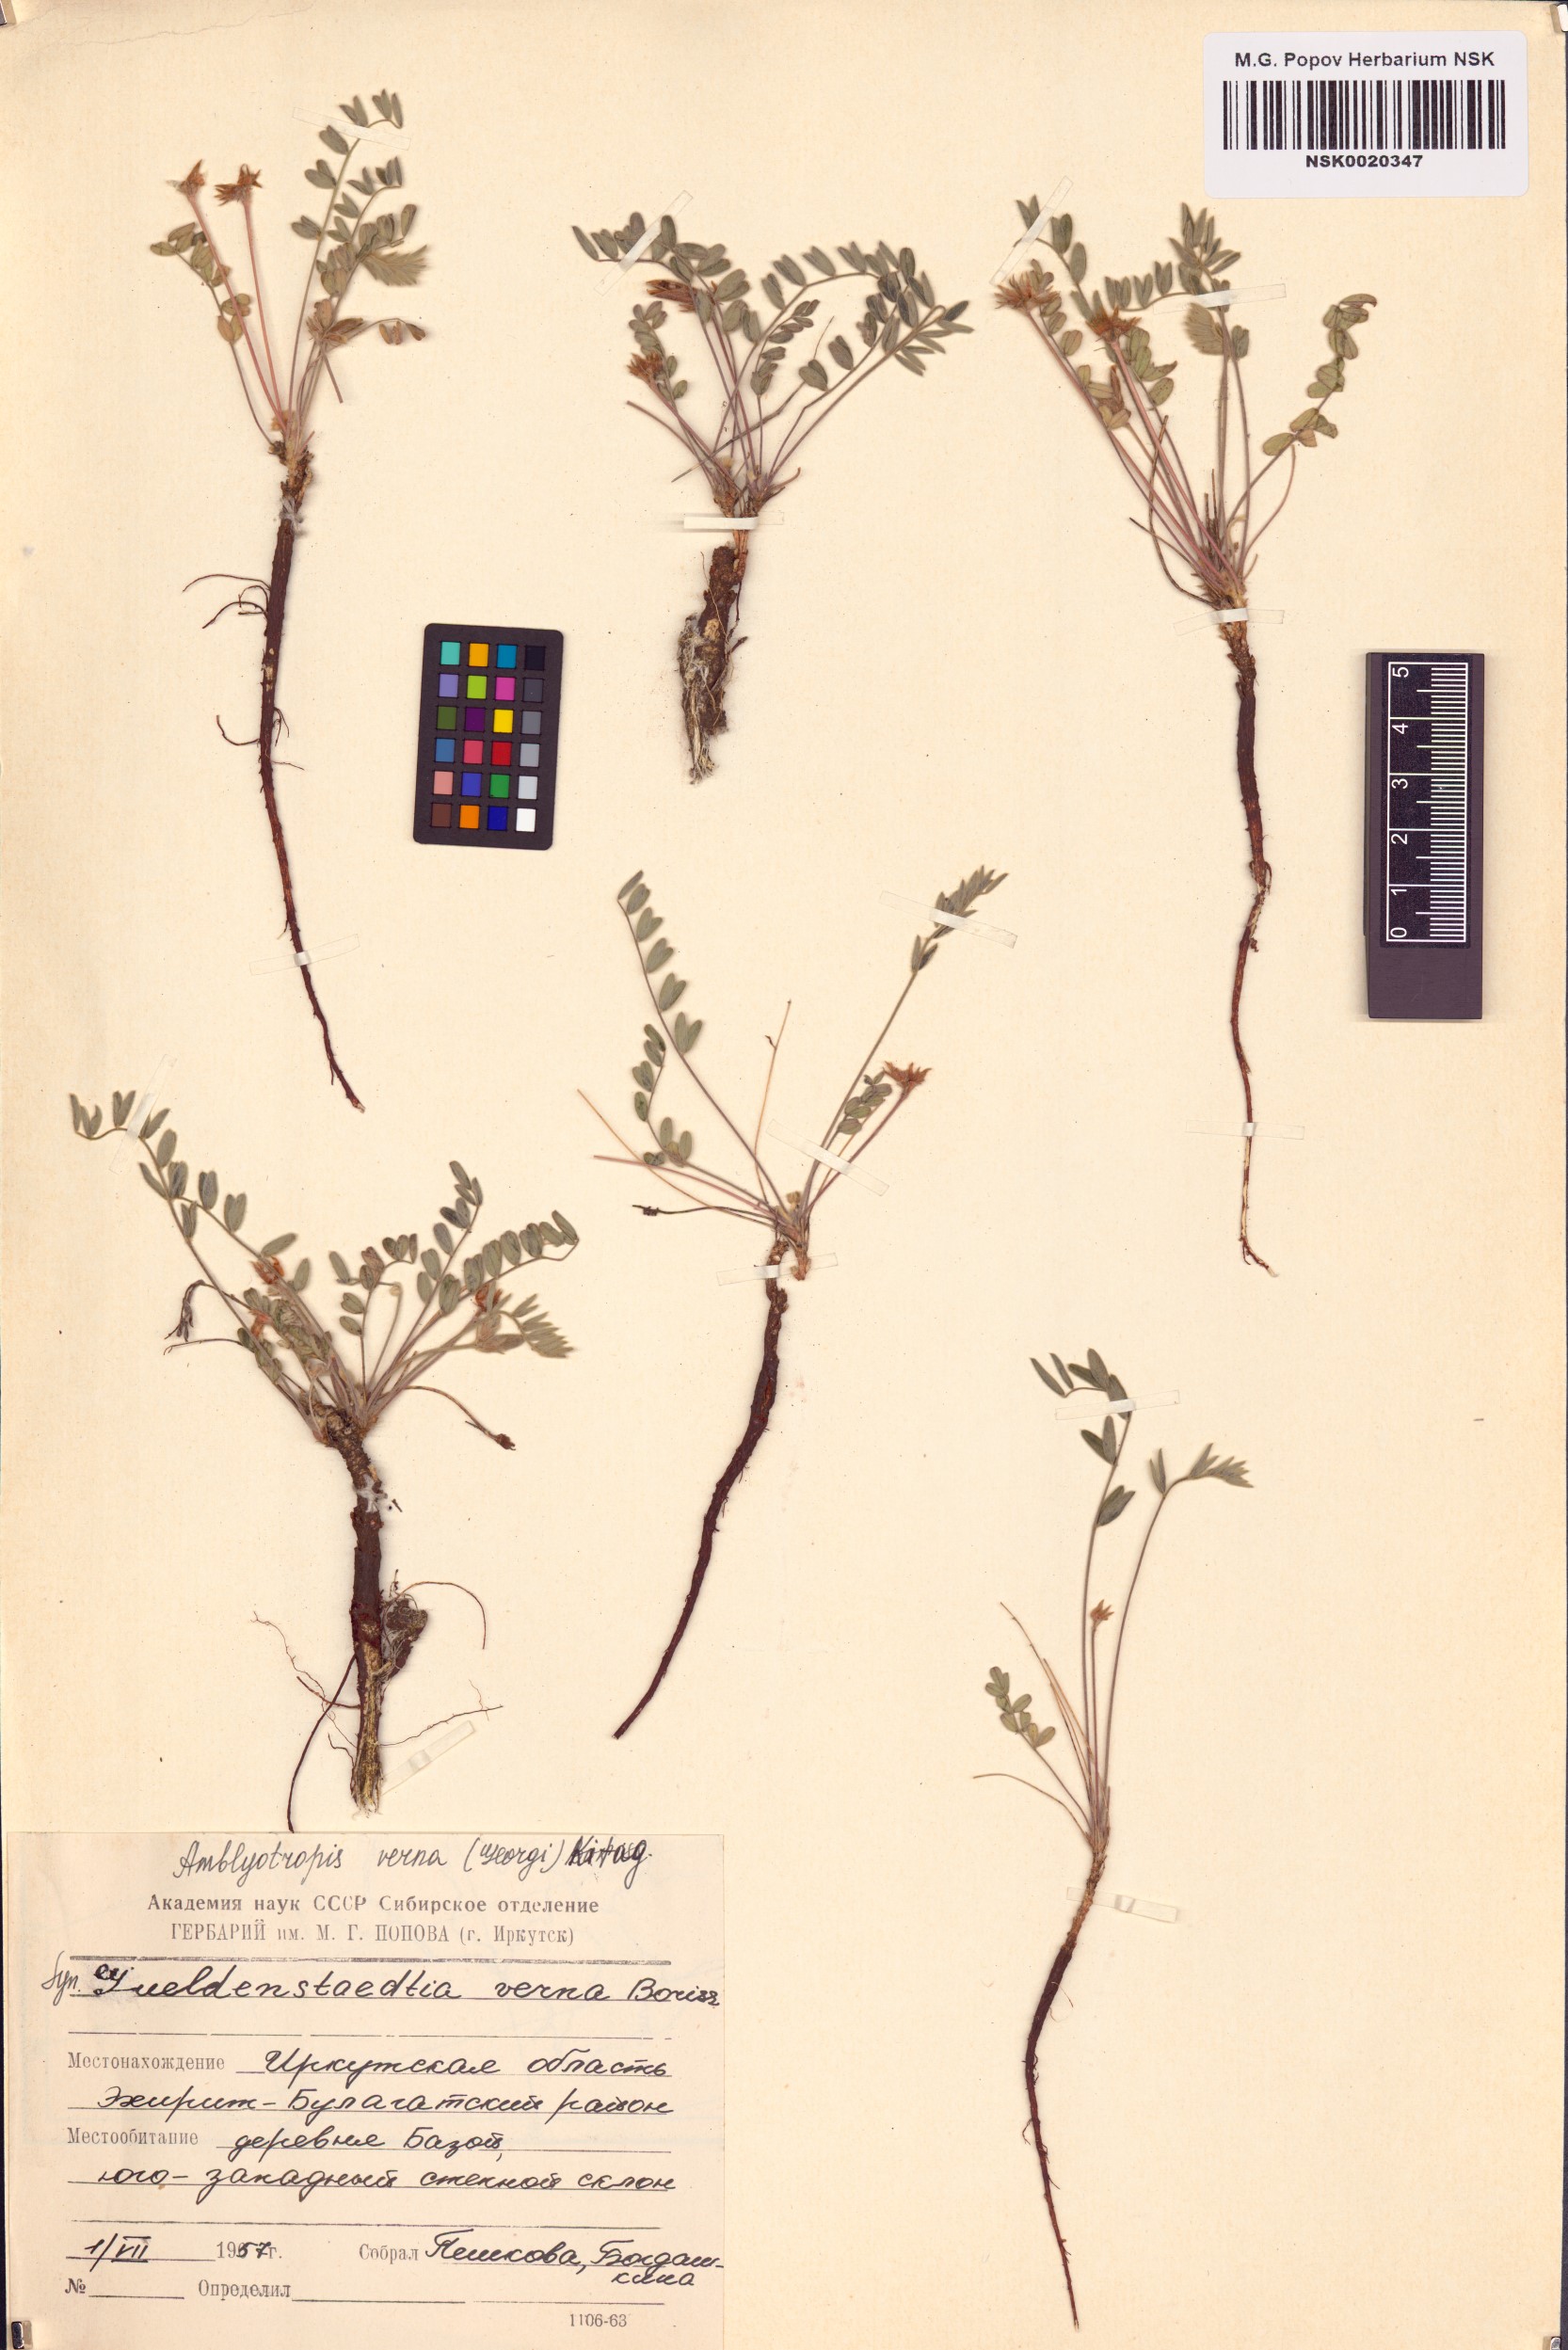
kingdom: Plantae
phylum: Tracheophyta
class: Magnoliopsida
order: Fabales
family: Fabaceae
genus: Gueldenstaedtia
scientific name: Gueldenstaedtia verna
